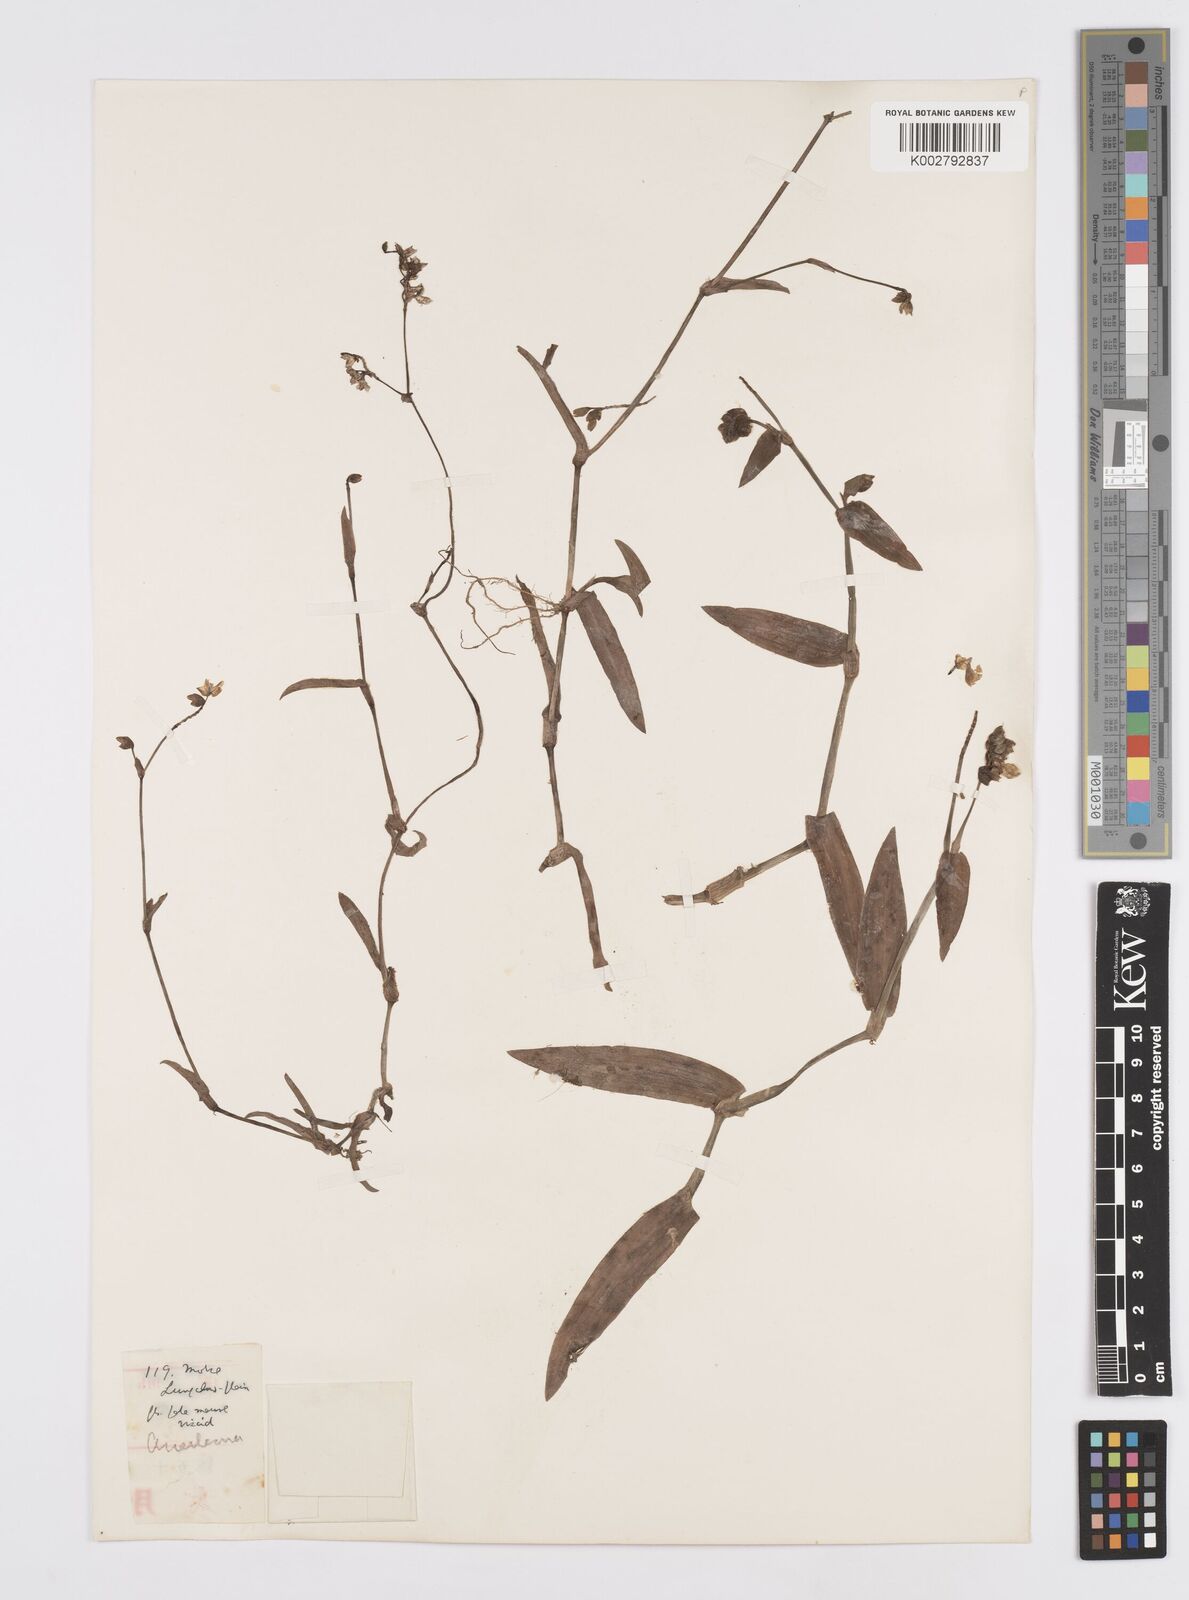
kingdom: Plantae
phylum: Tracheophyta
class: Liliopsida
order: Commelinales
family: Commelinaceae
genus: Murdannia
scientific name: Murdannia loriformis
